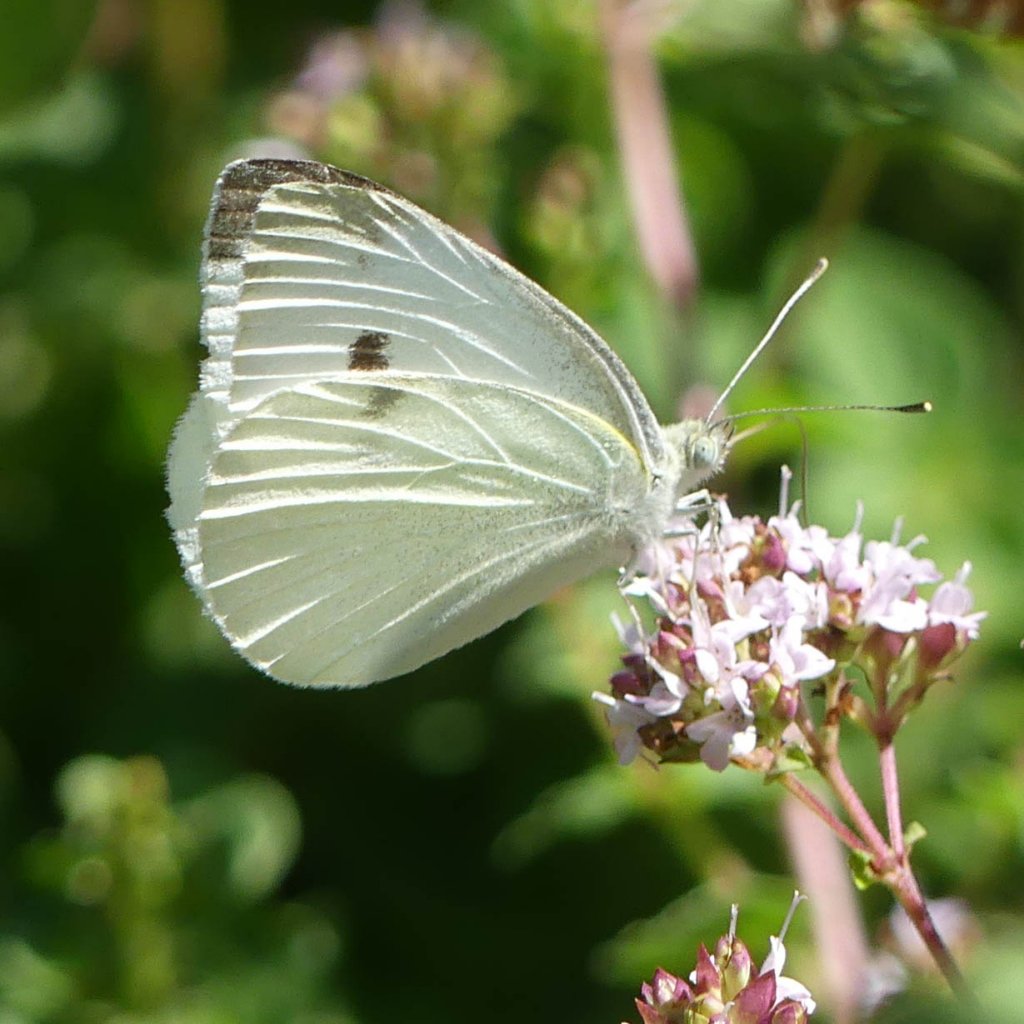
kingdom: Animalia
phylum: Arthropoda
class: Insecta
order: Lepidoptera
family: Pieridae
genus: Pieris
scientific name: Pieris rapae
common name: Cabbage White
